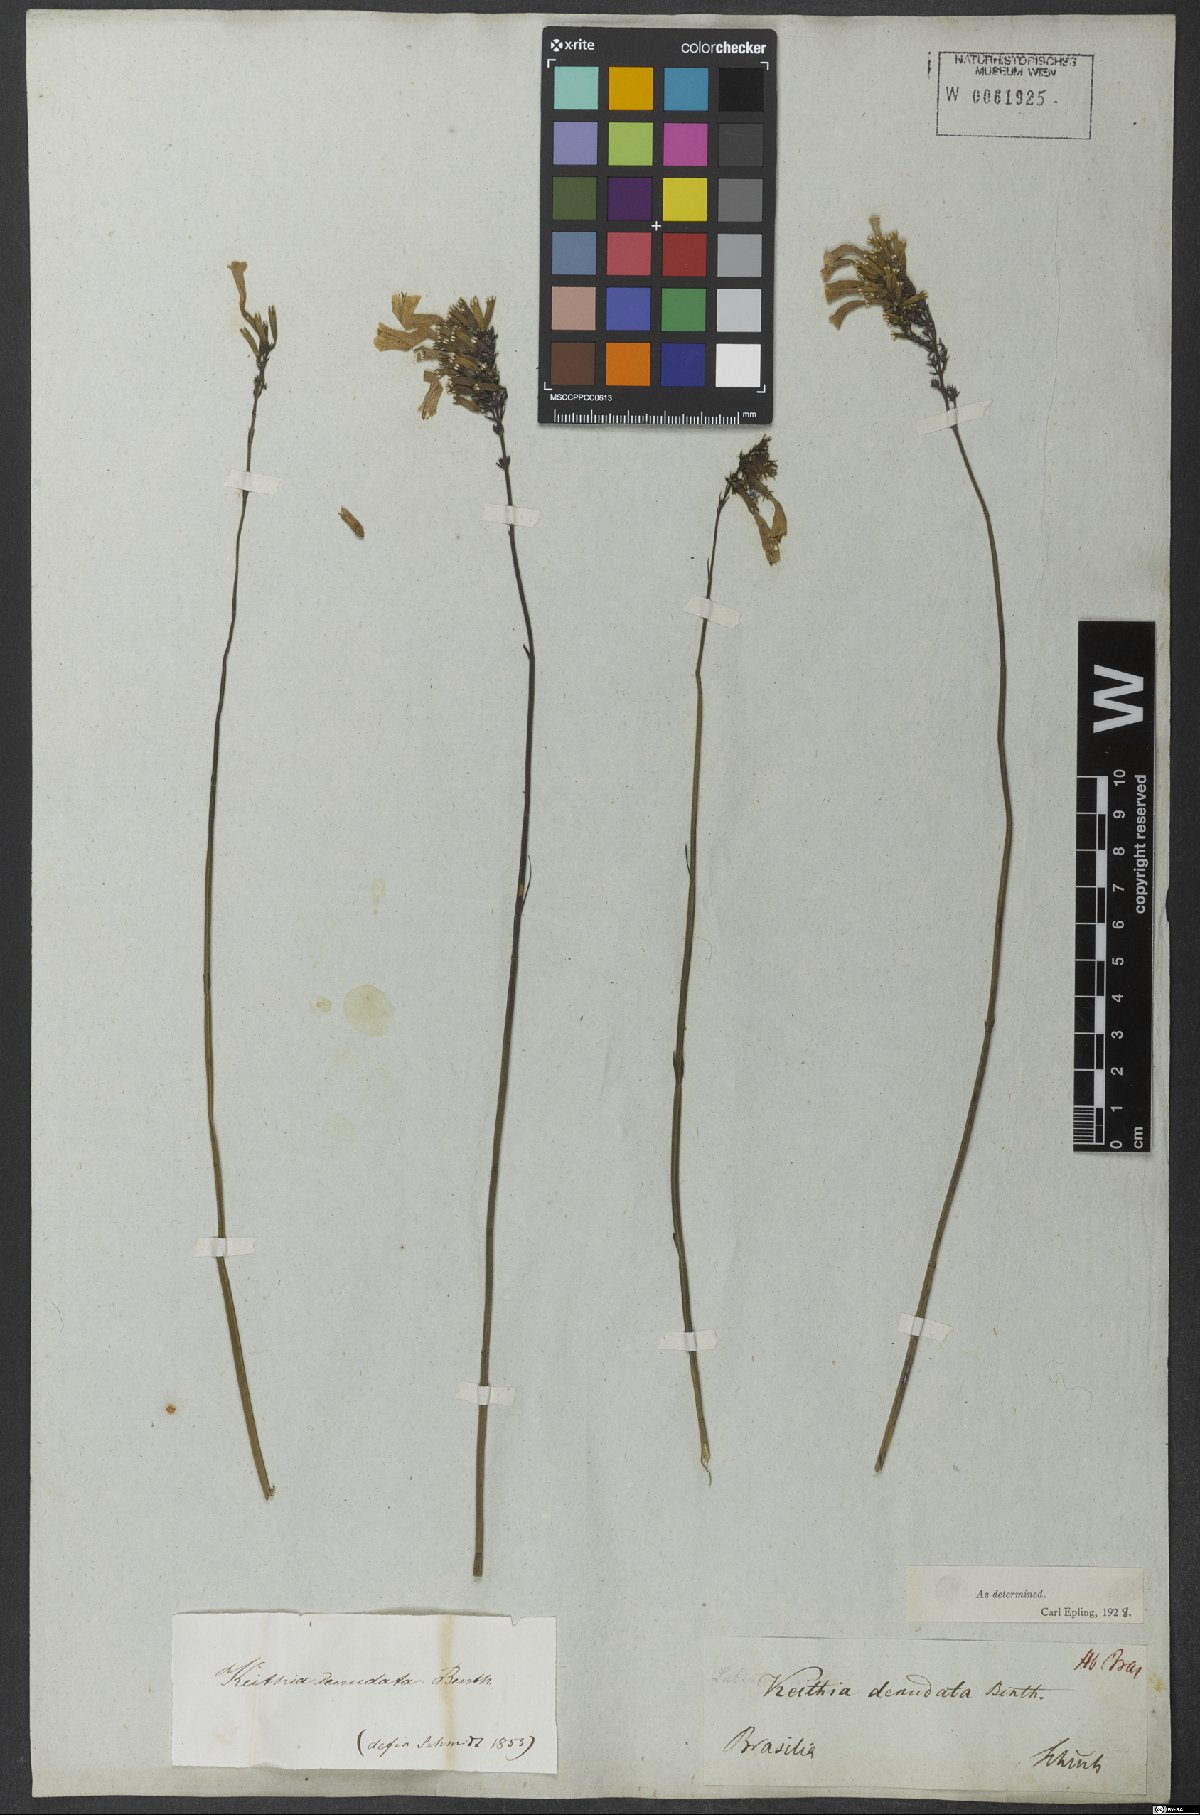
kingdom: Plantae
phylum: Tracheophyta
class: Magnoliopsida
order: Lamiales
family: Lamiaceae
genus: Rhabdocaulon
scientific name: Rhabdocaulon denudatum
